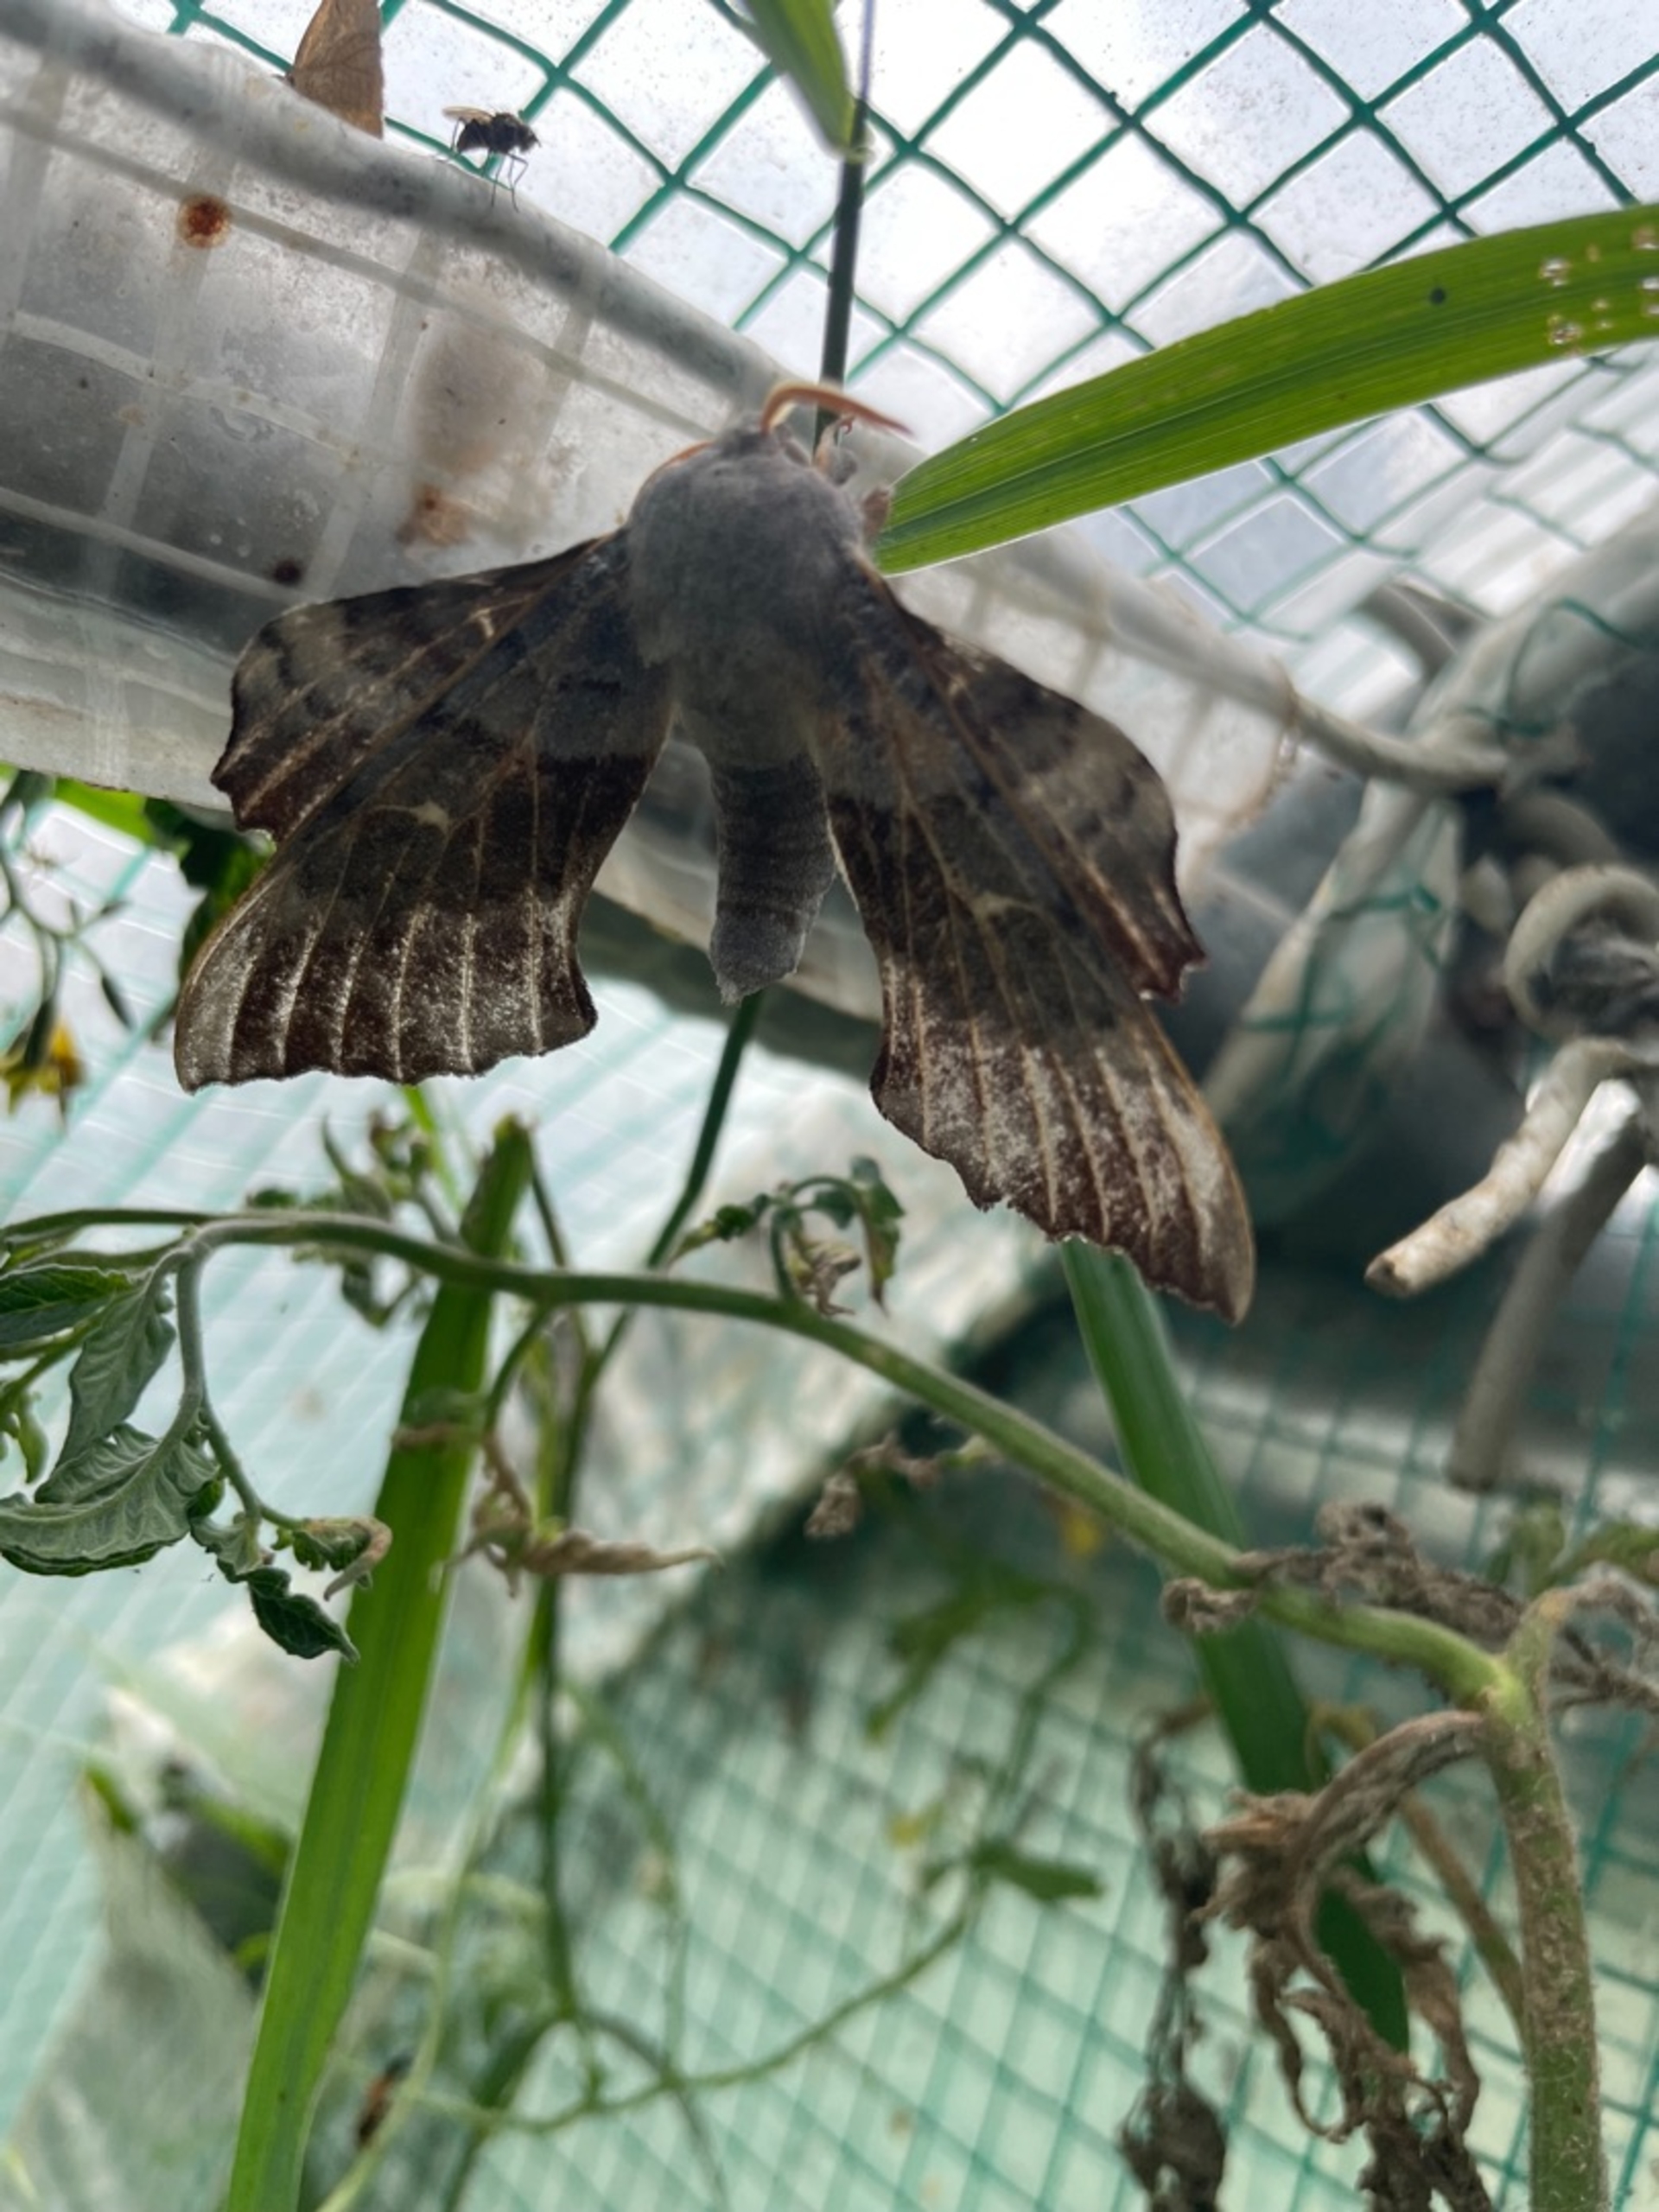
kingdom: Animalia
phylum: Arthropoda
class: Insecta
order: Lepidoptera
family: Sphingidae
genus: Laothoe
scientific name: Laothoe populi
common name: Poppelsværmer
